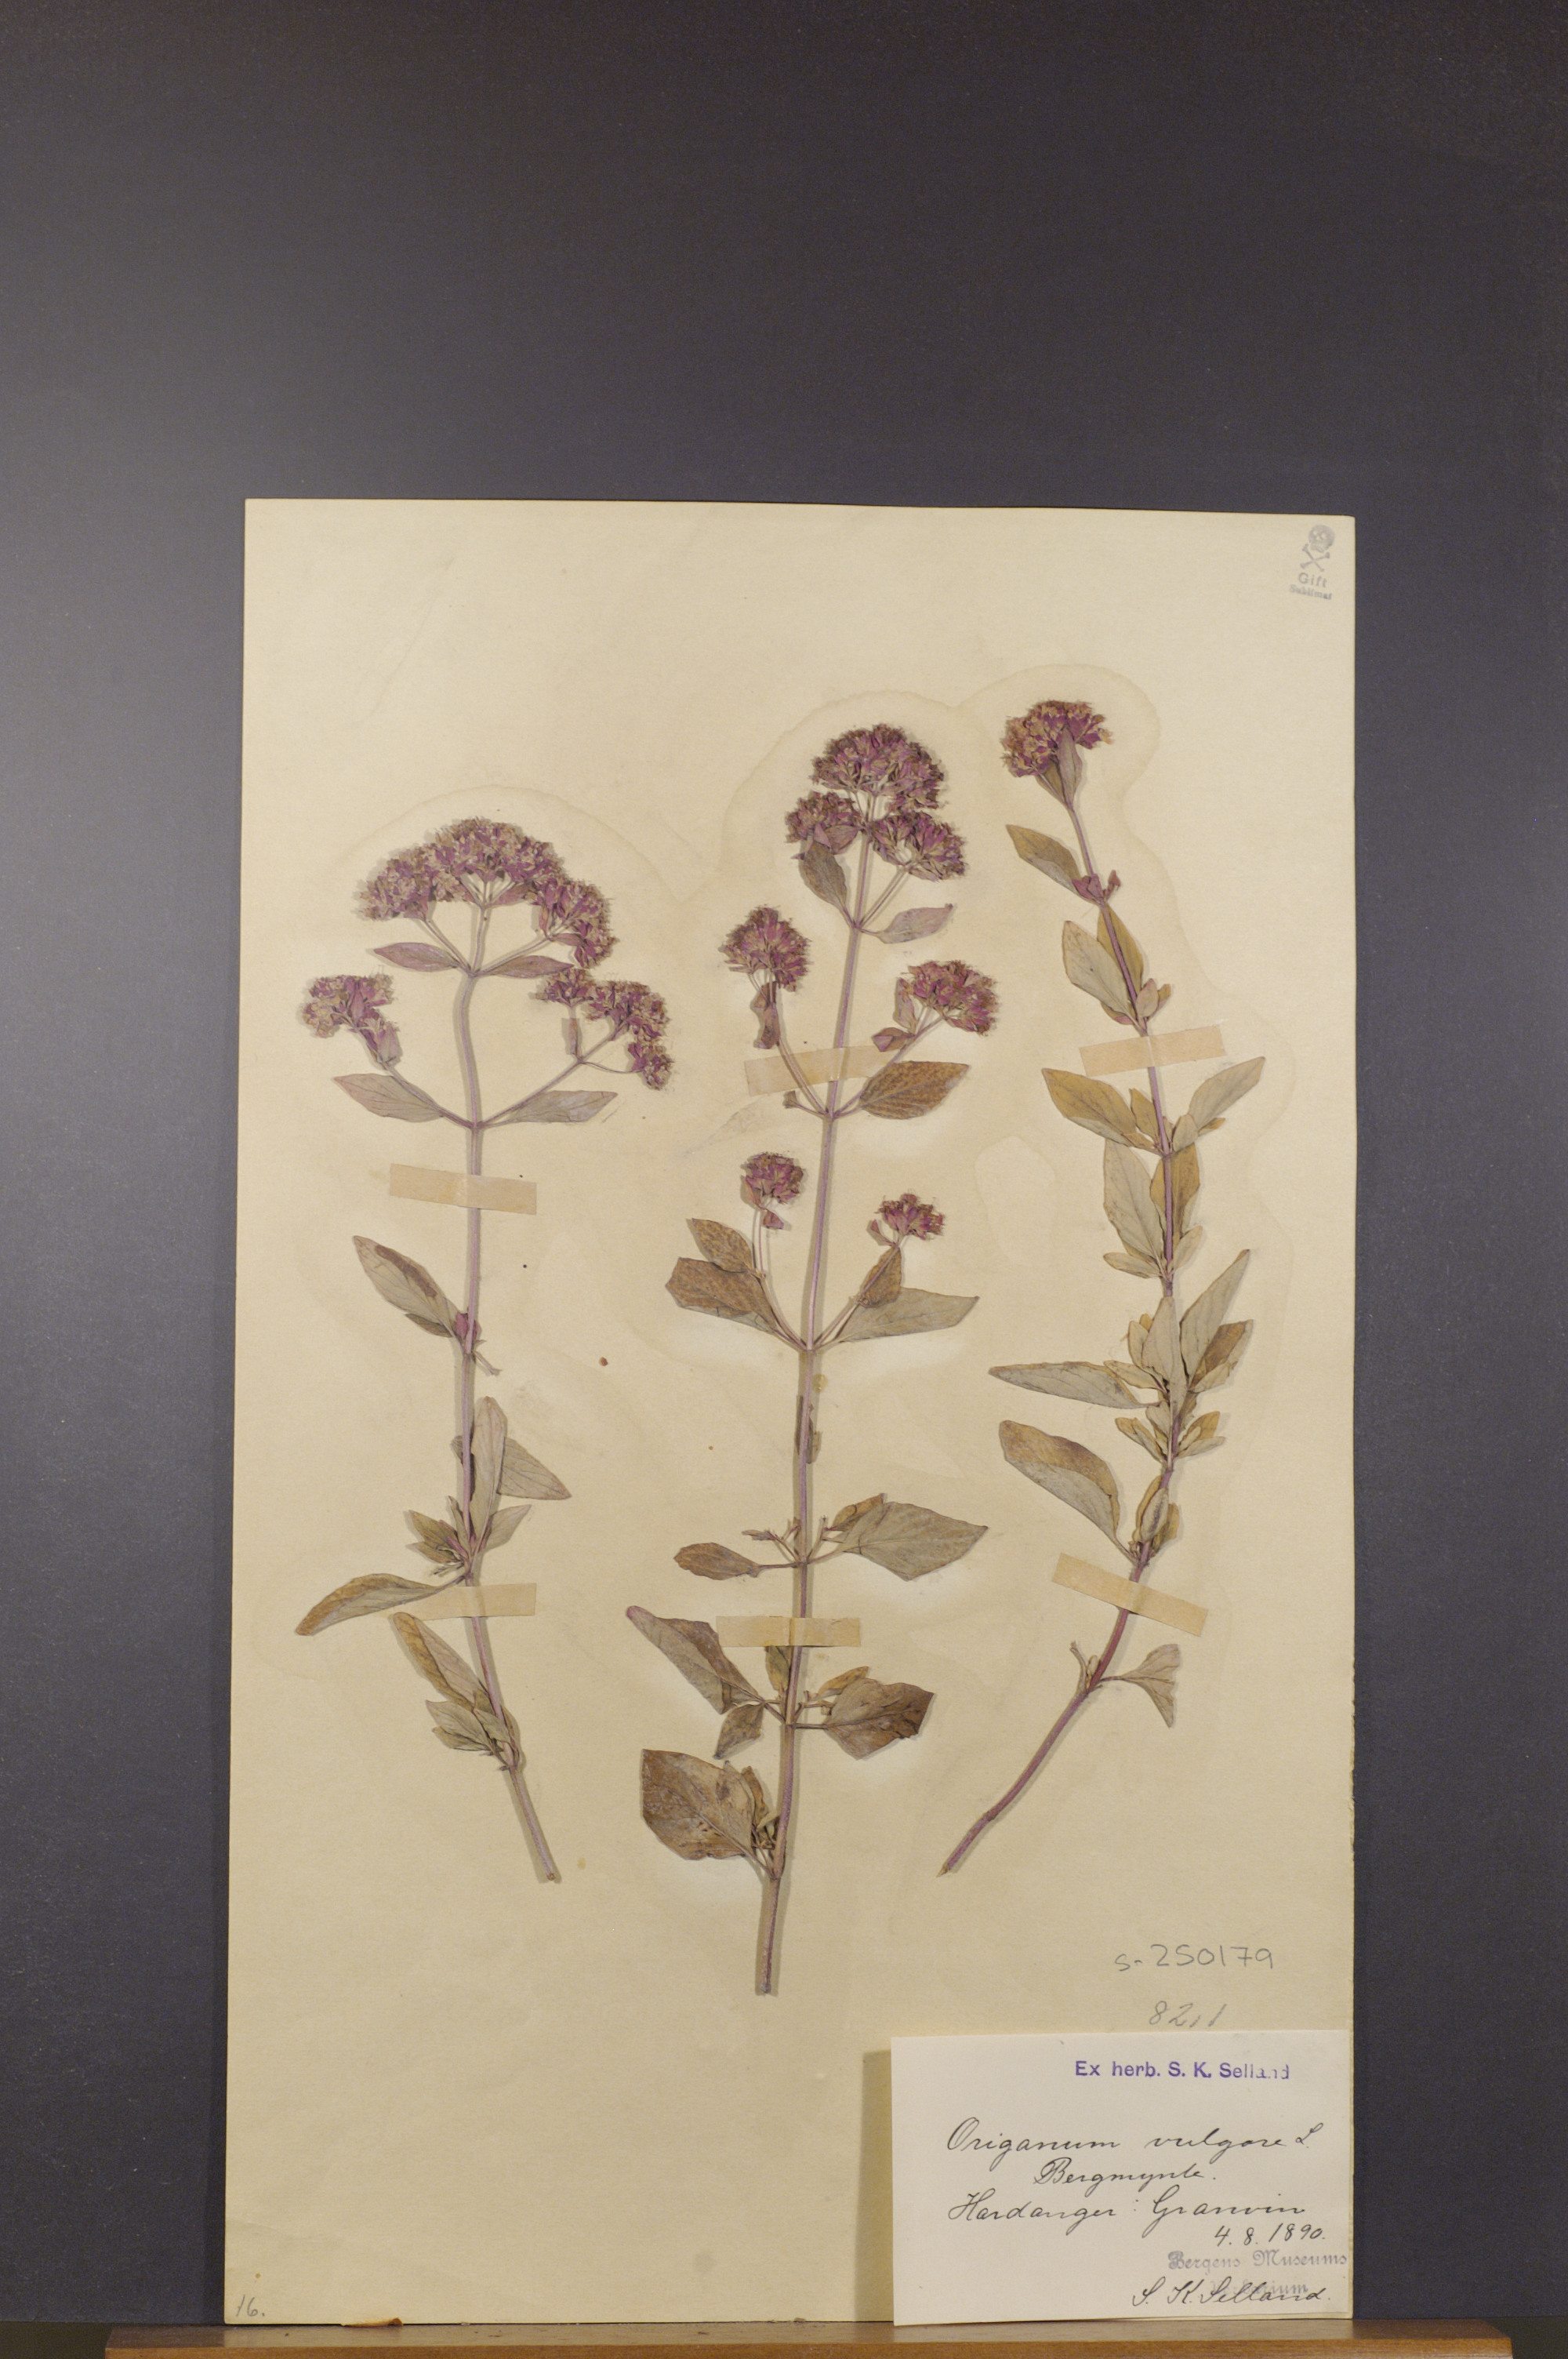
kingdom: Plantae
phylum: Tracheophyta
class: Magnoliopsida
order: Lamiales
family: Lamiaceae
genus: Origanum
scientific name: Origanum vulgare
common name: Wild marjoram
